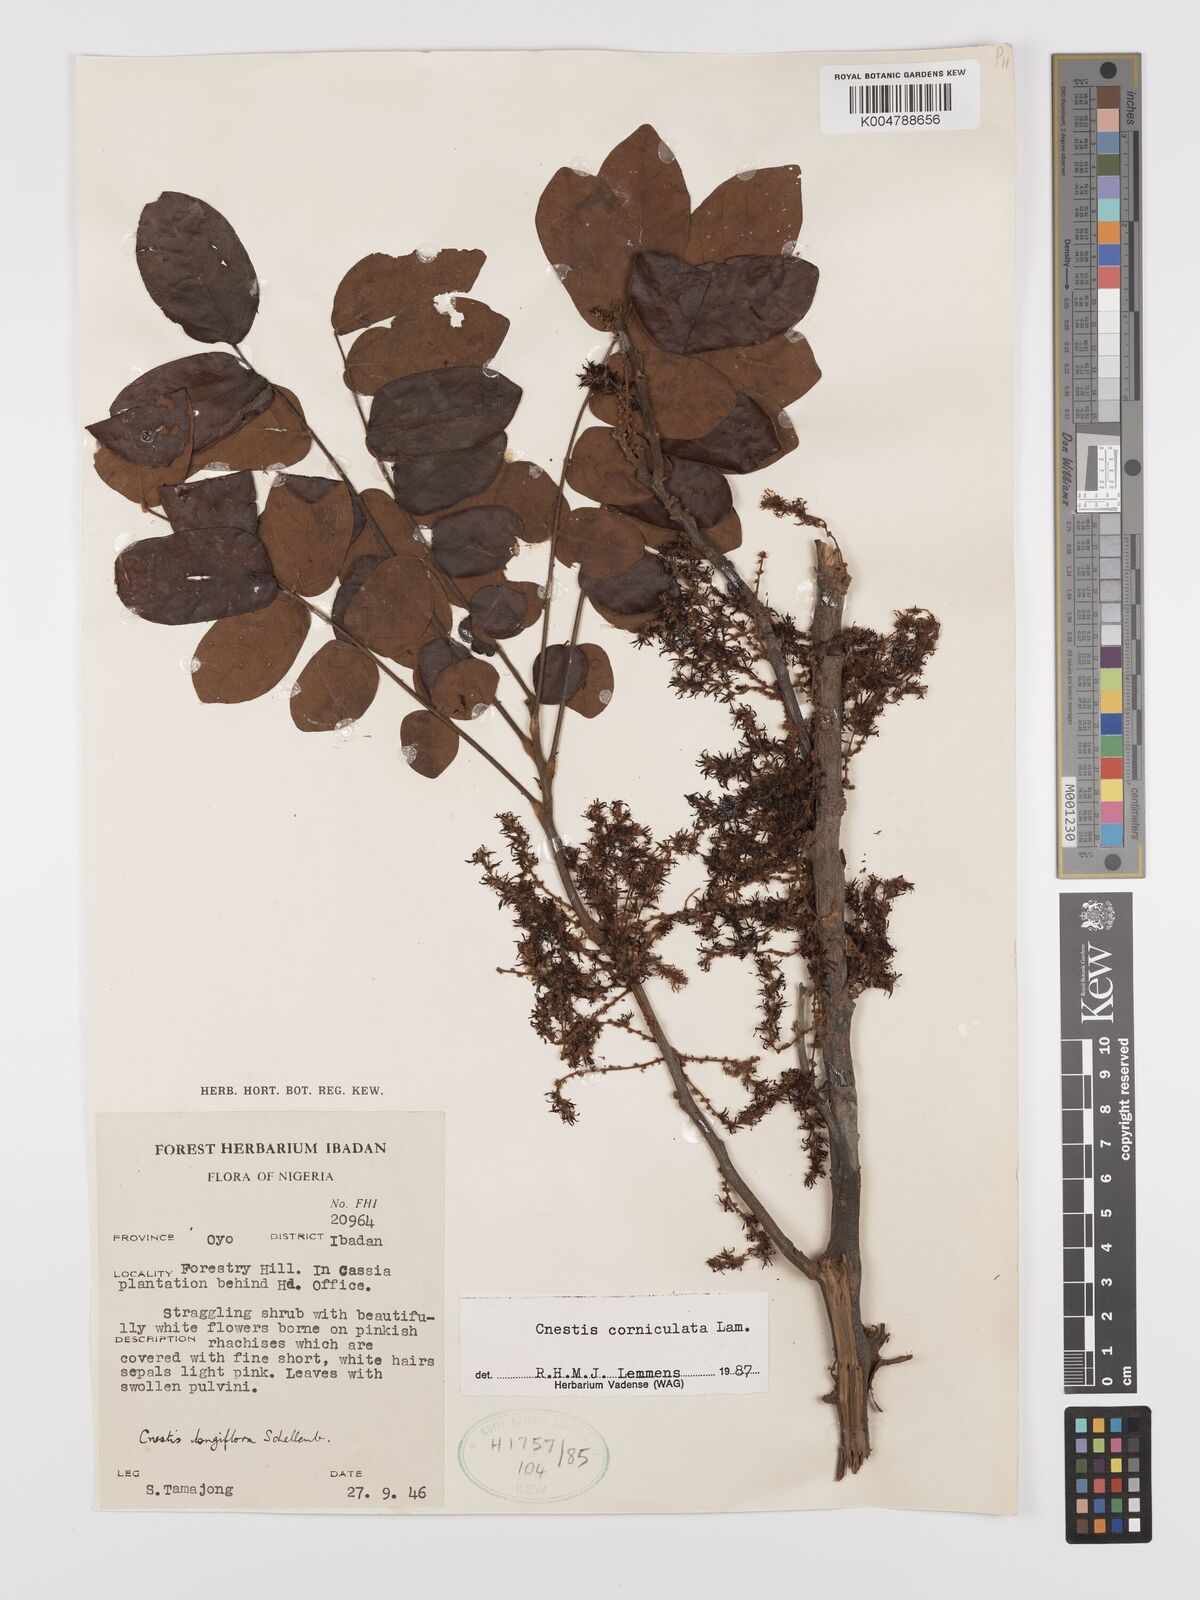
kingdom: Plantae
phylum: Tracheophyta
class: Magnoliopsida
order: Oxalidales
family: Connaraceae
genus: Cnestis
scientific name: Cnestis corniculata
